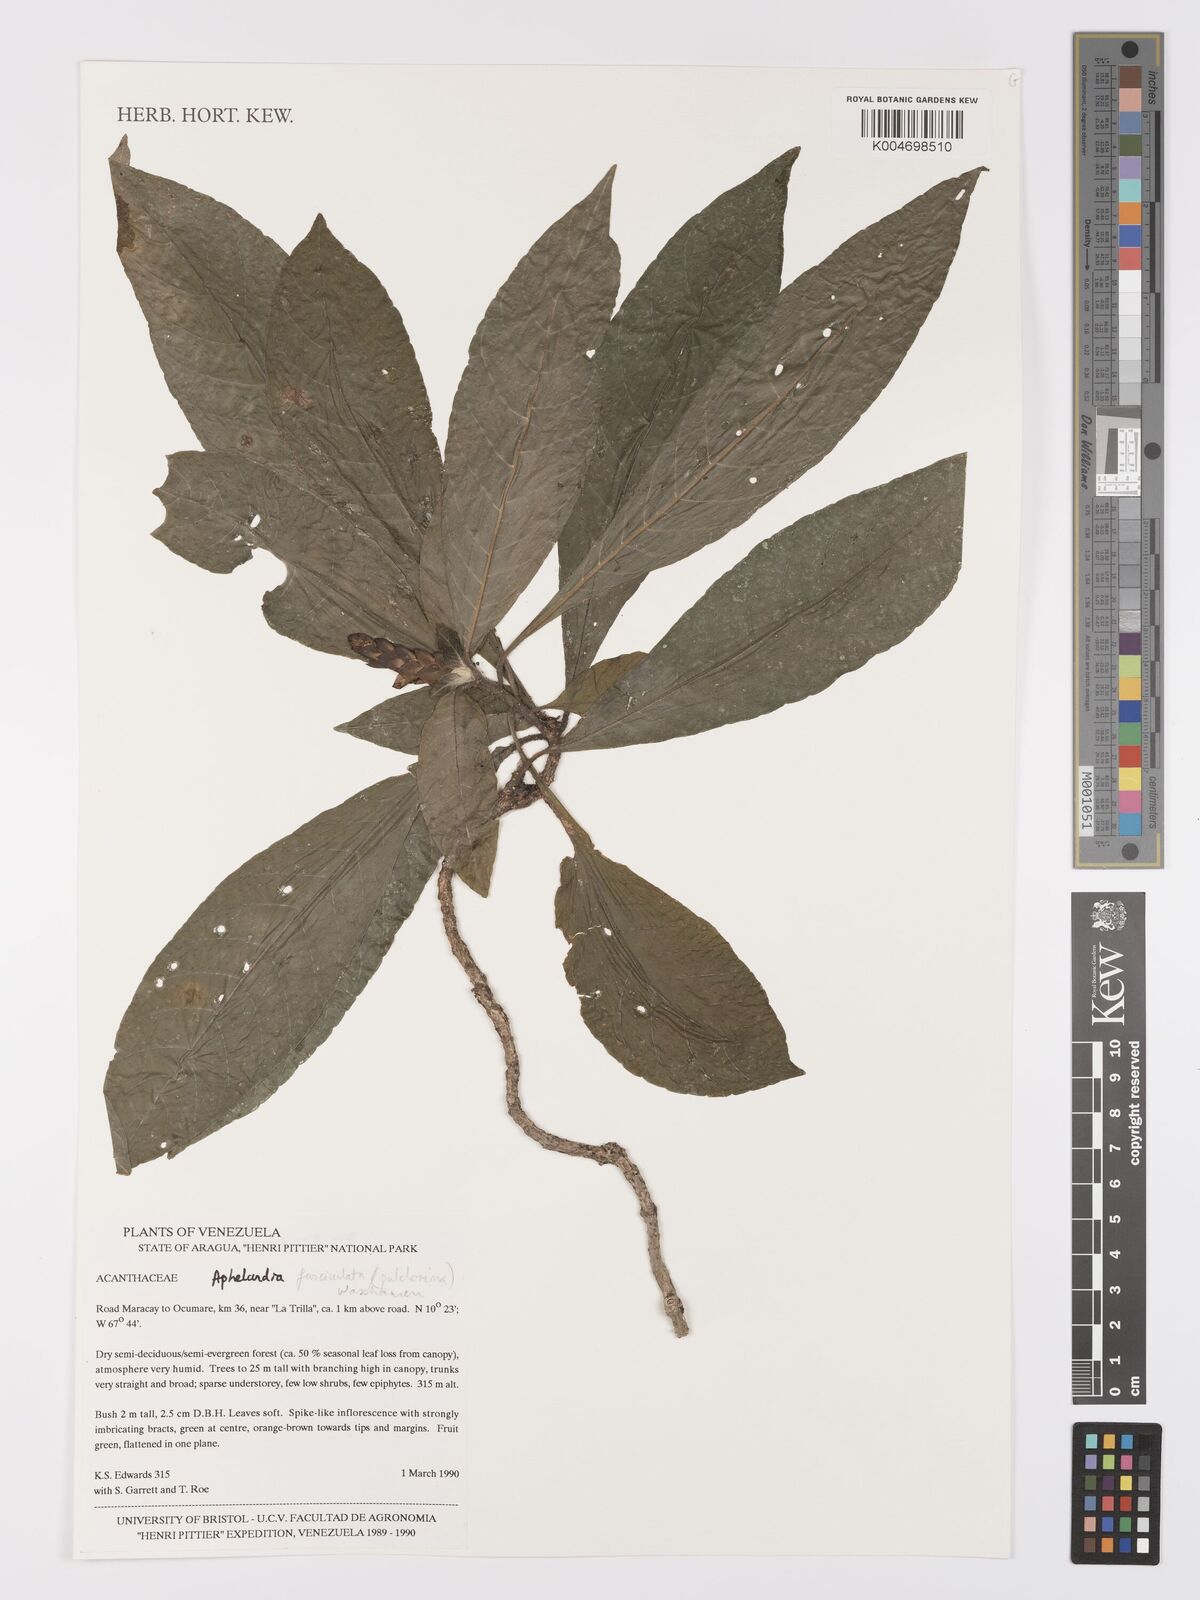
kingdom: Plantae
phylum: Tracheophyta
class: Magnoliopsida
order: Lamiales
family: Acanthaceae
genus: Aphelandra
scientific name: Aphelandra fasciculata
